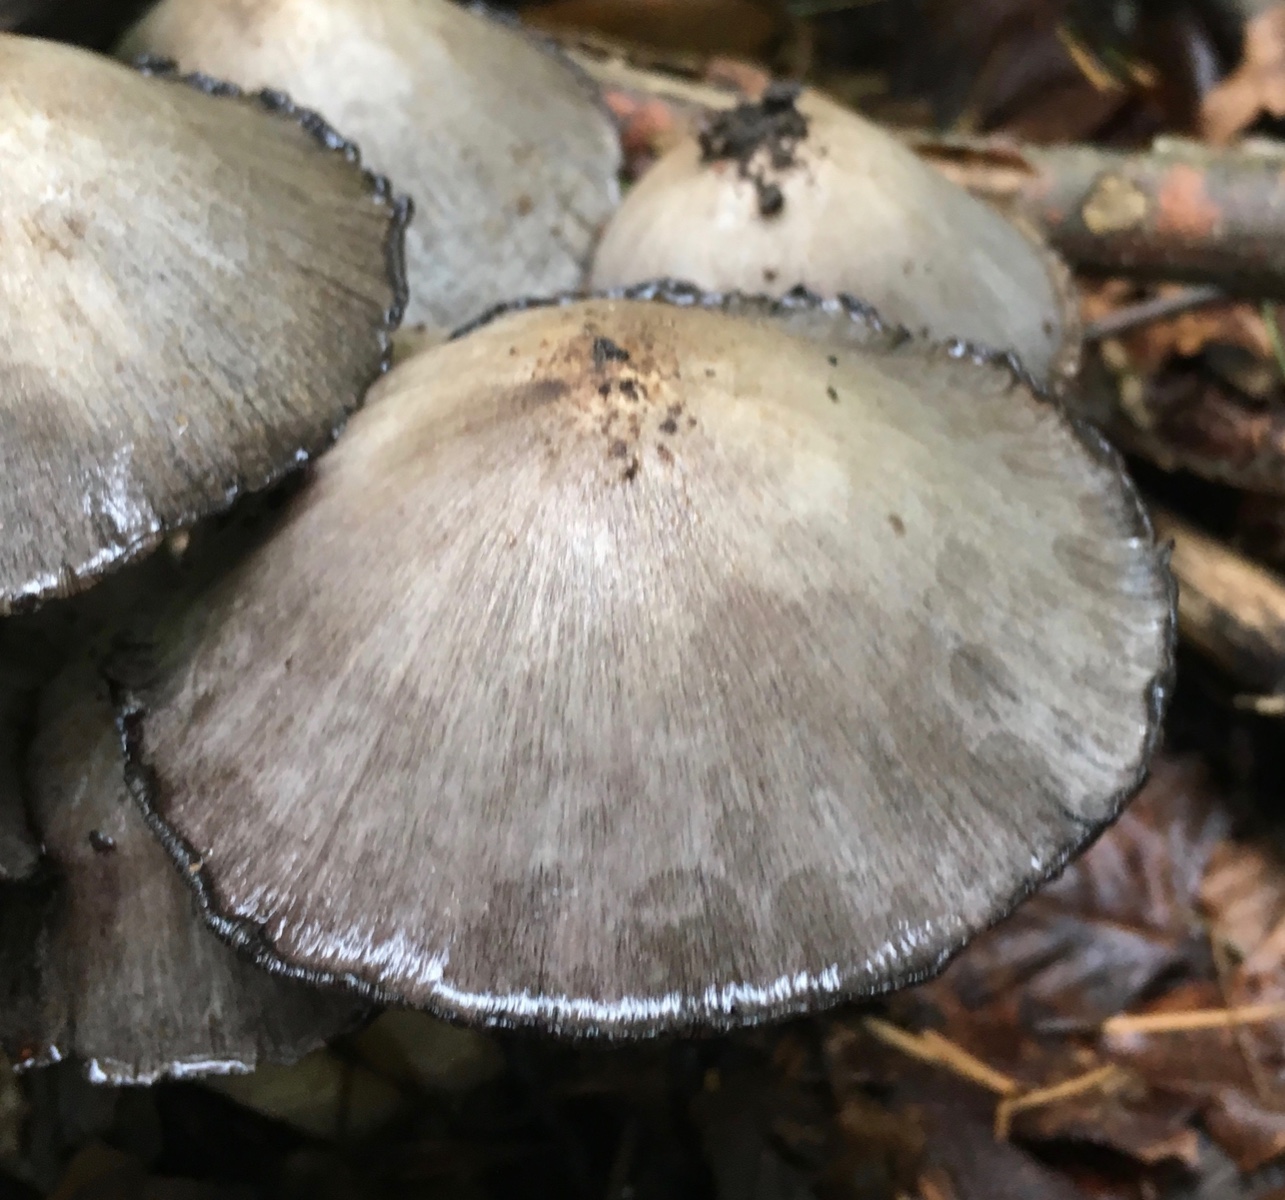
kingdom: Fungi
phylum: Basidiomycota
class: Agaricomycetes
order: Agaricales
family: Psathyrellaceae
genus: Coprinopsis
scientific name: Coprinopsis atramentaria
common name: almindelig blækhat
